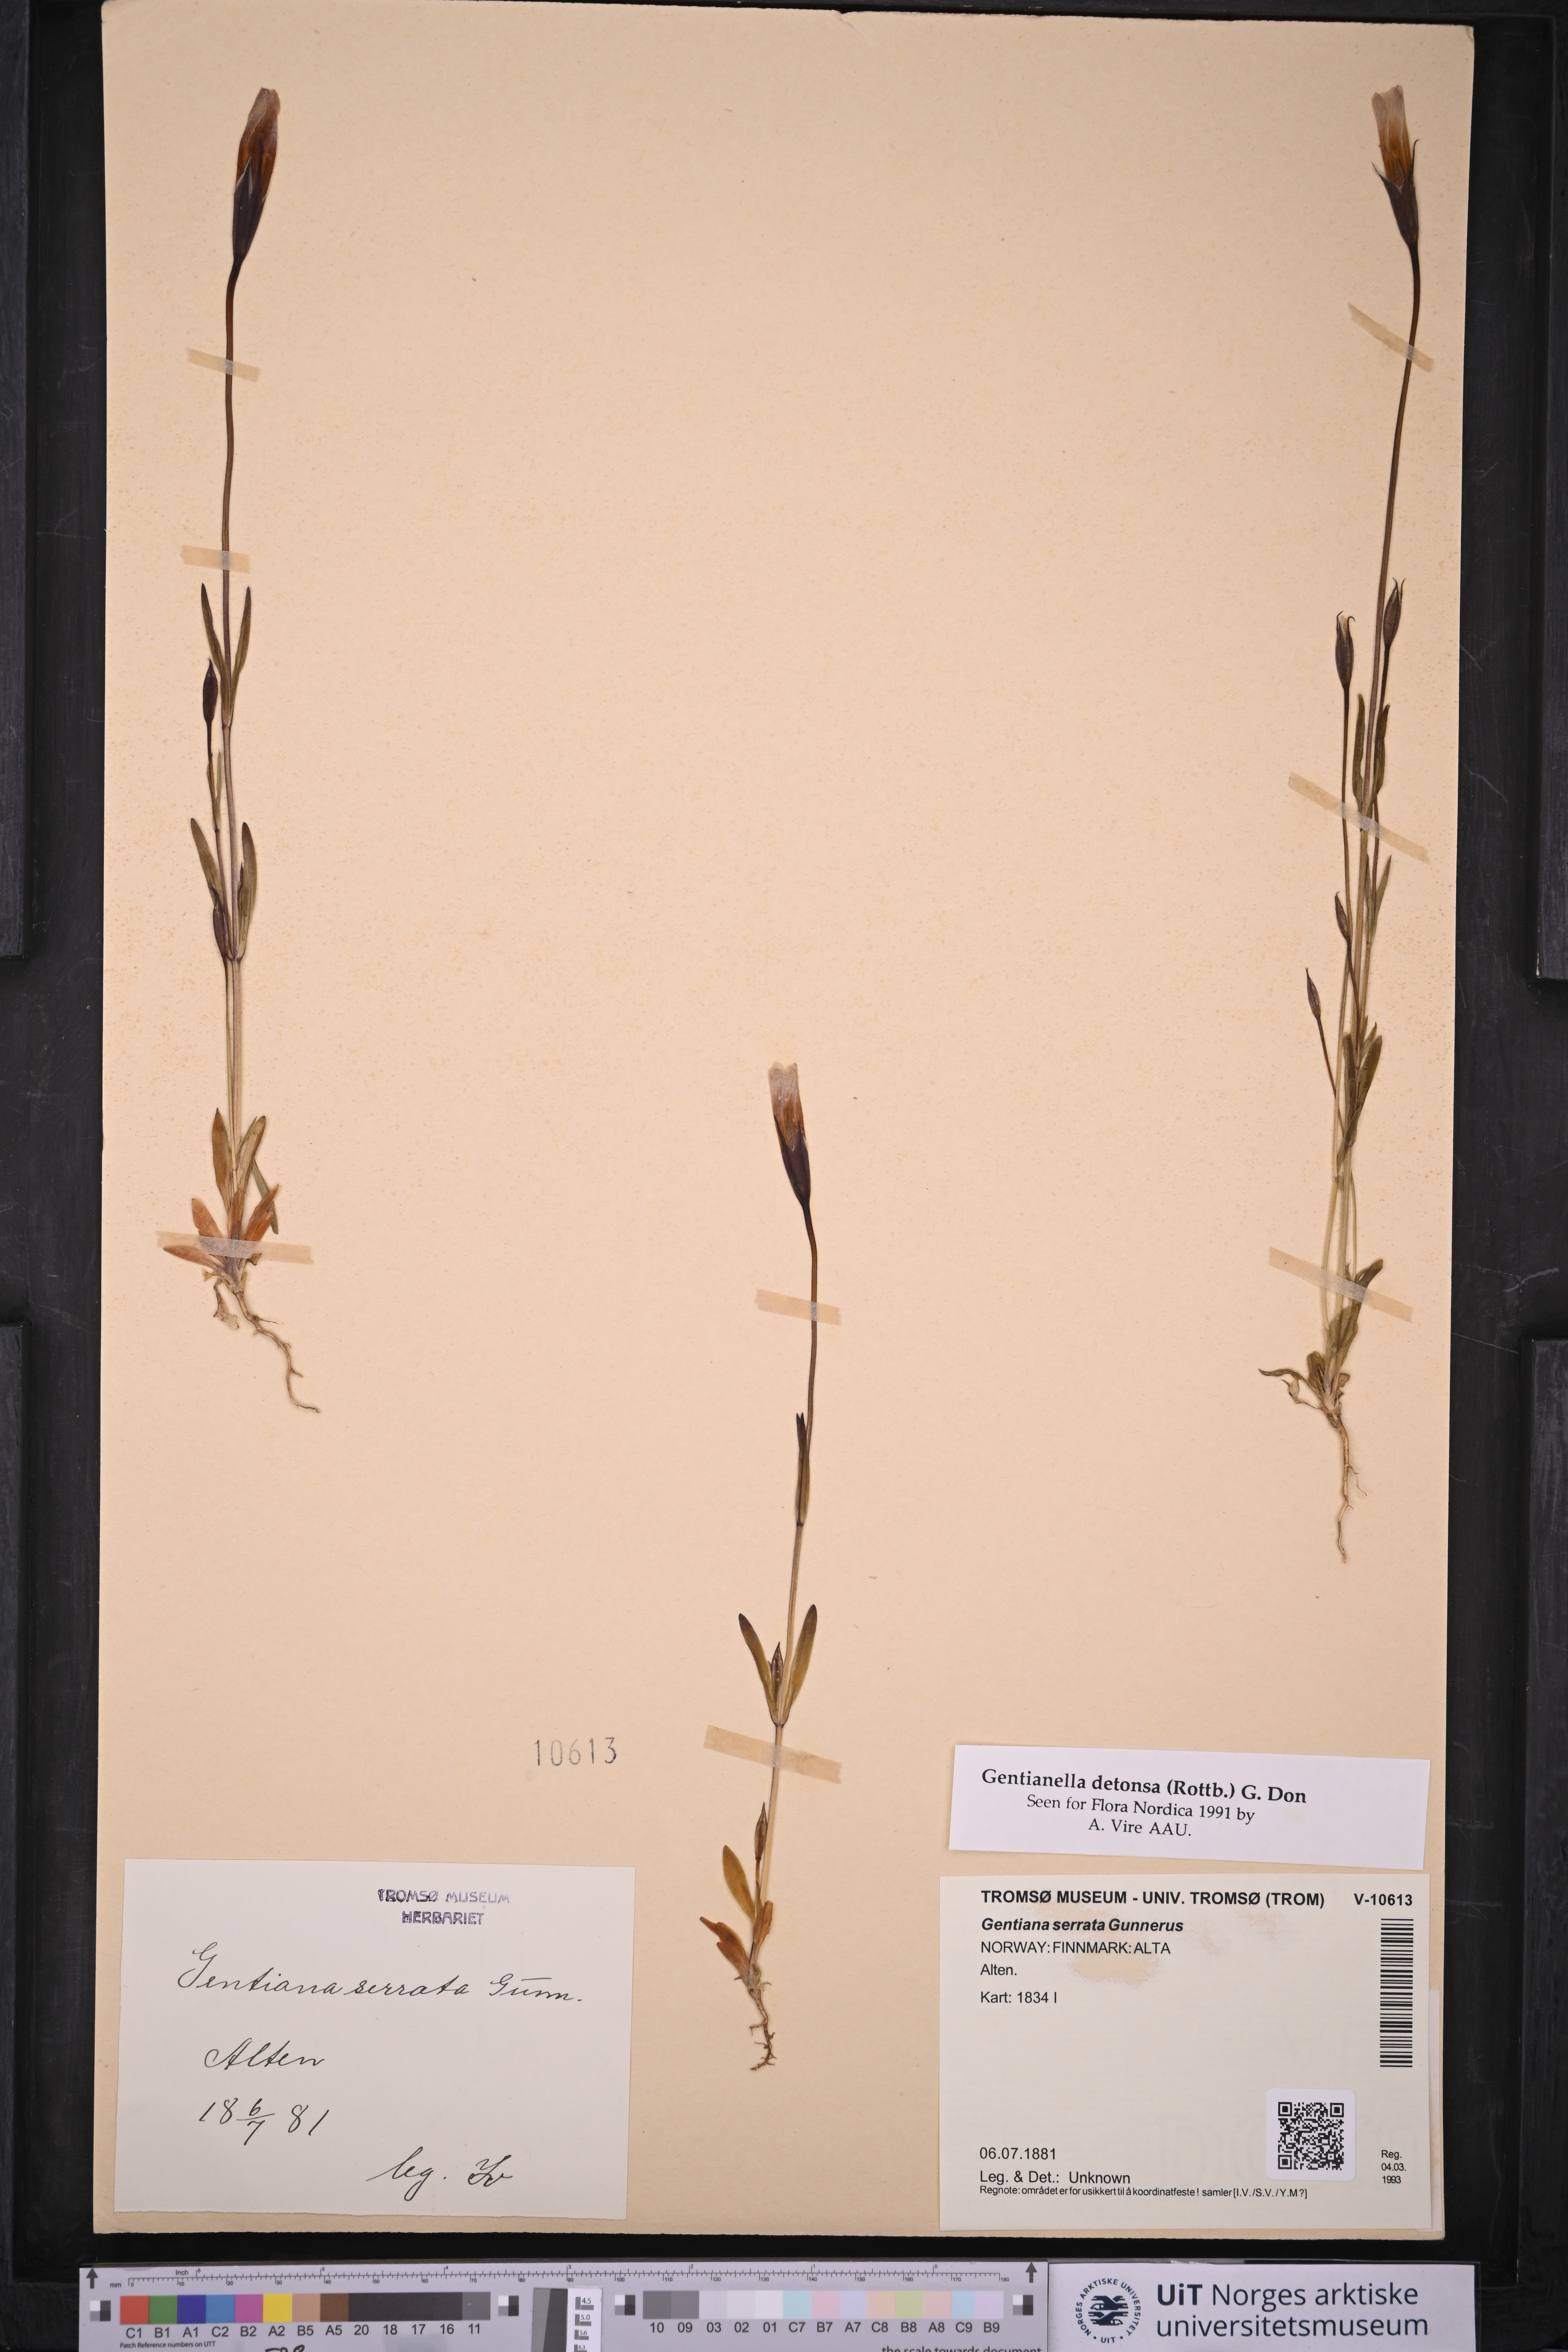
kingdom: Plantae
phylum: Tracheophyta
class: Magnoliopsida
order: Gentianales
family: Gentianaceae
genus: Gentianopsis
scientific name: Gentianopsis detonsa
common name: Fringed-gentian
